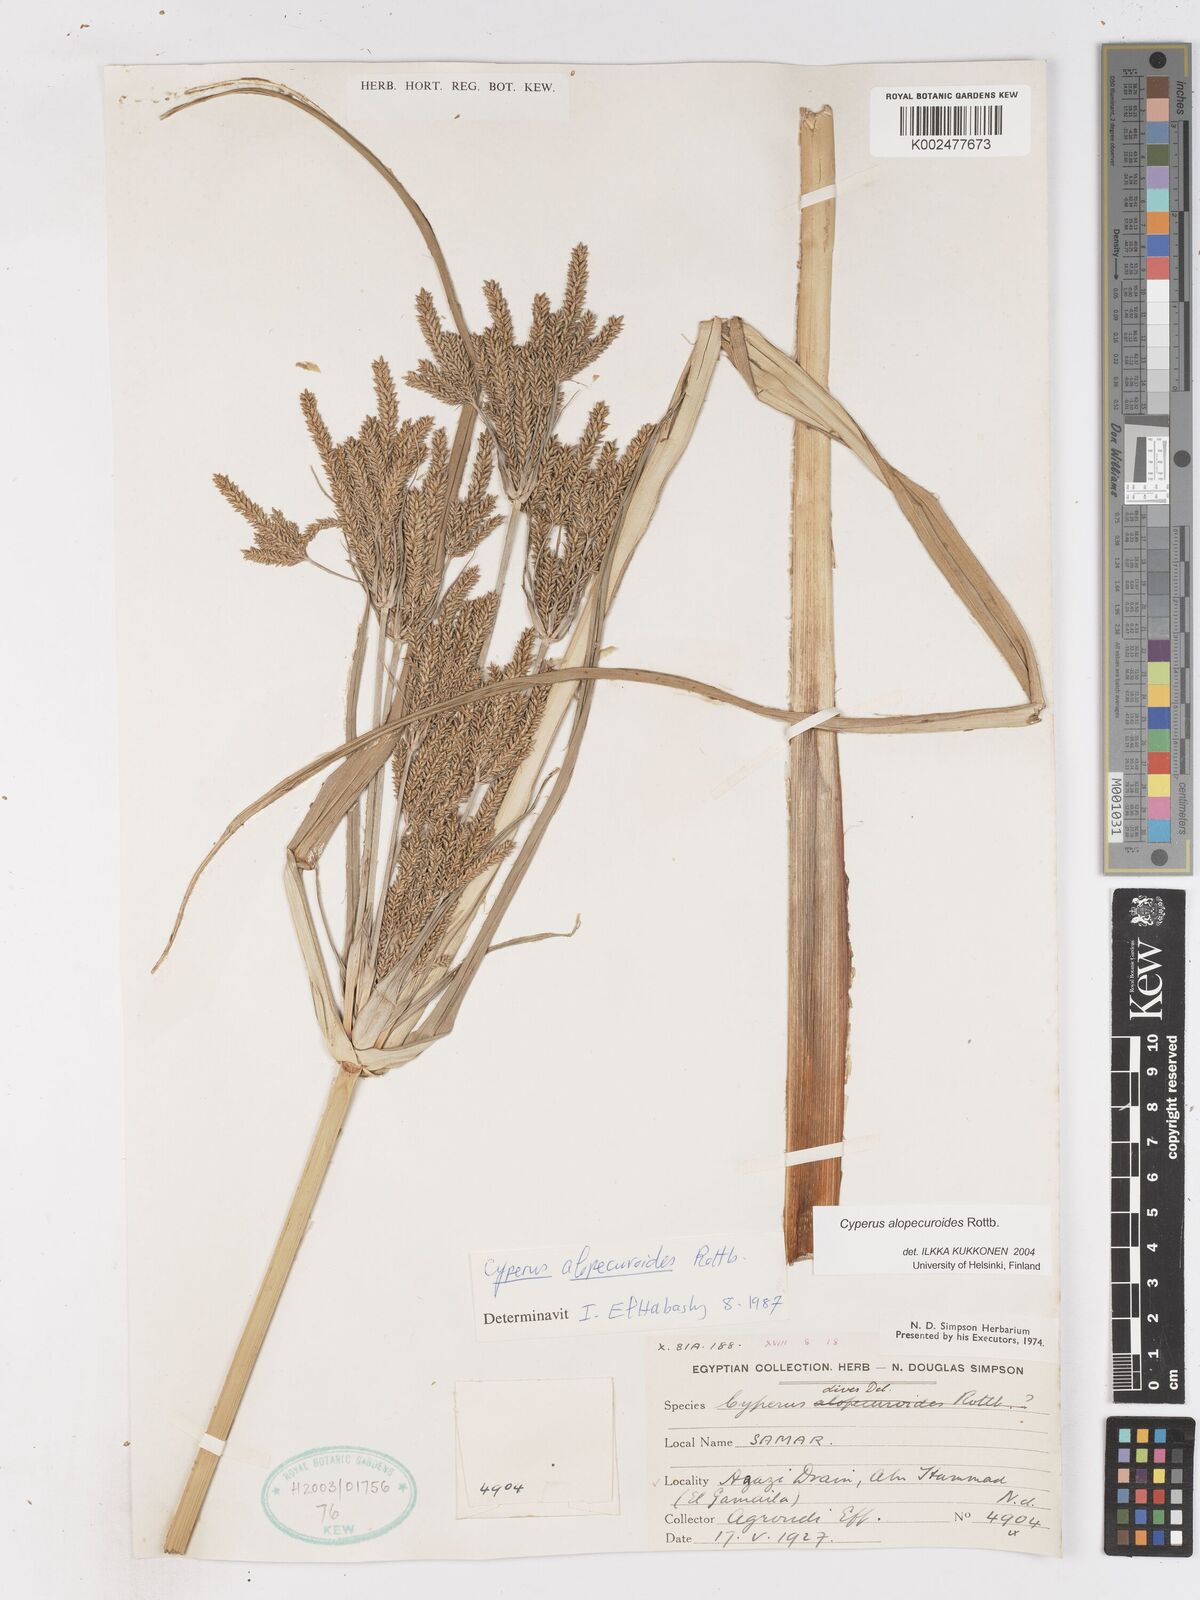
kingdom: Plantae
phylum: Tracheophyta
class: Liliopsida
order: Poales
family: Cyperaceae
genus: Cyperus
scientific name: Cyperus alopecuroides
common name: Foxtail flatsedge
